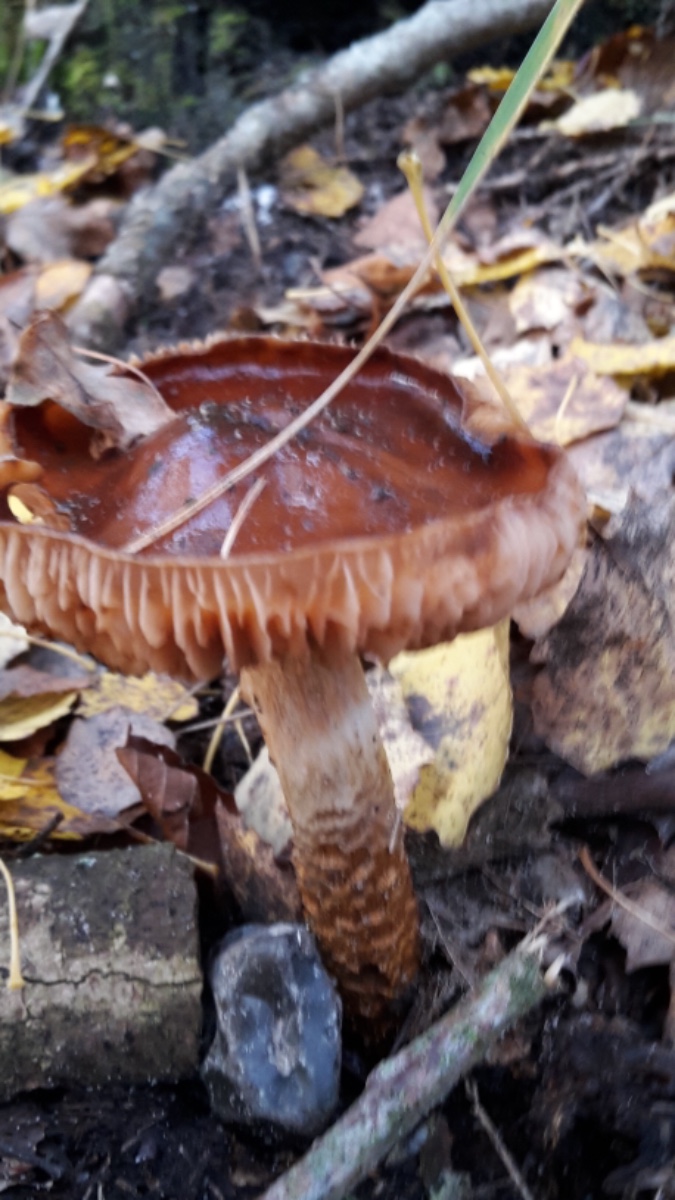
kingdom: Fungi
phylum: Basidiomycota
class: Agaricomycetes
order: Agaricales
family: Cortinariaceae
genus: Cortinarius
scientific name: Cortinarius trivialis
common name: brunslimet slørhat
